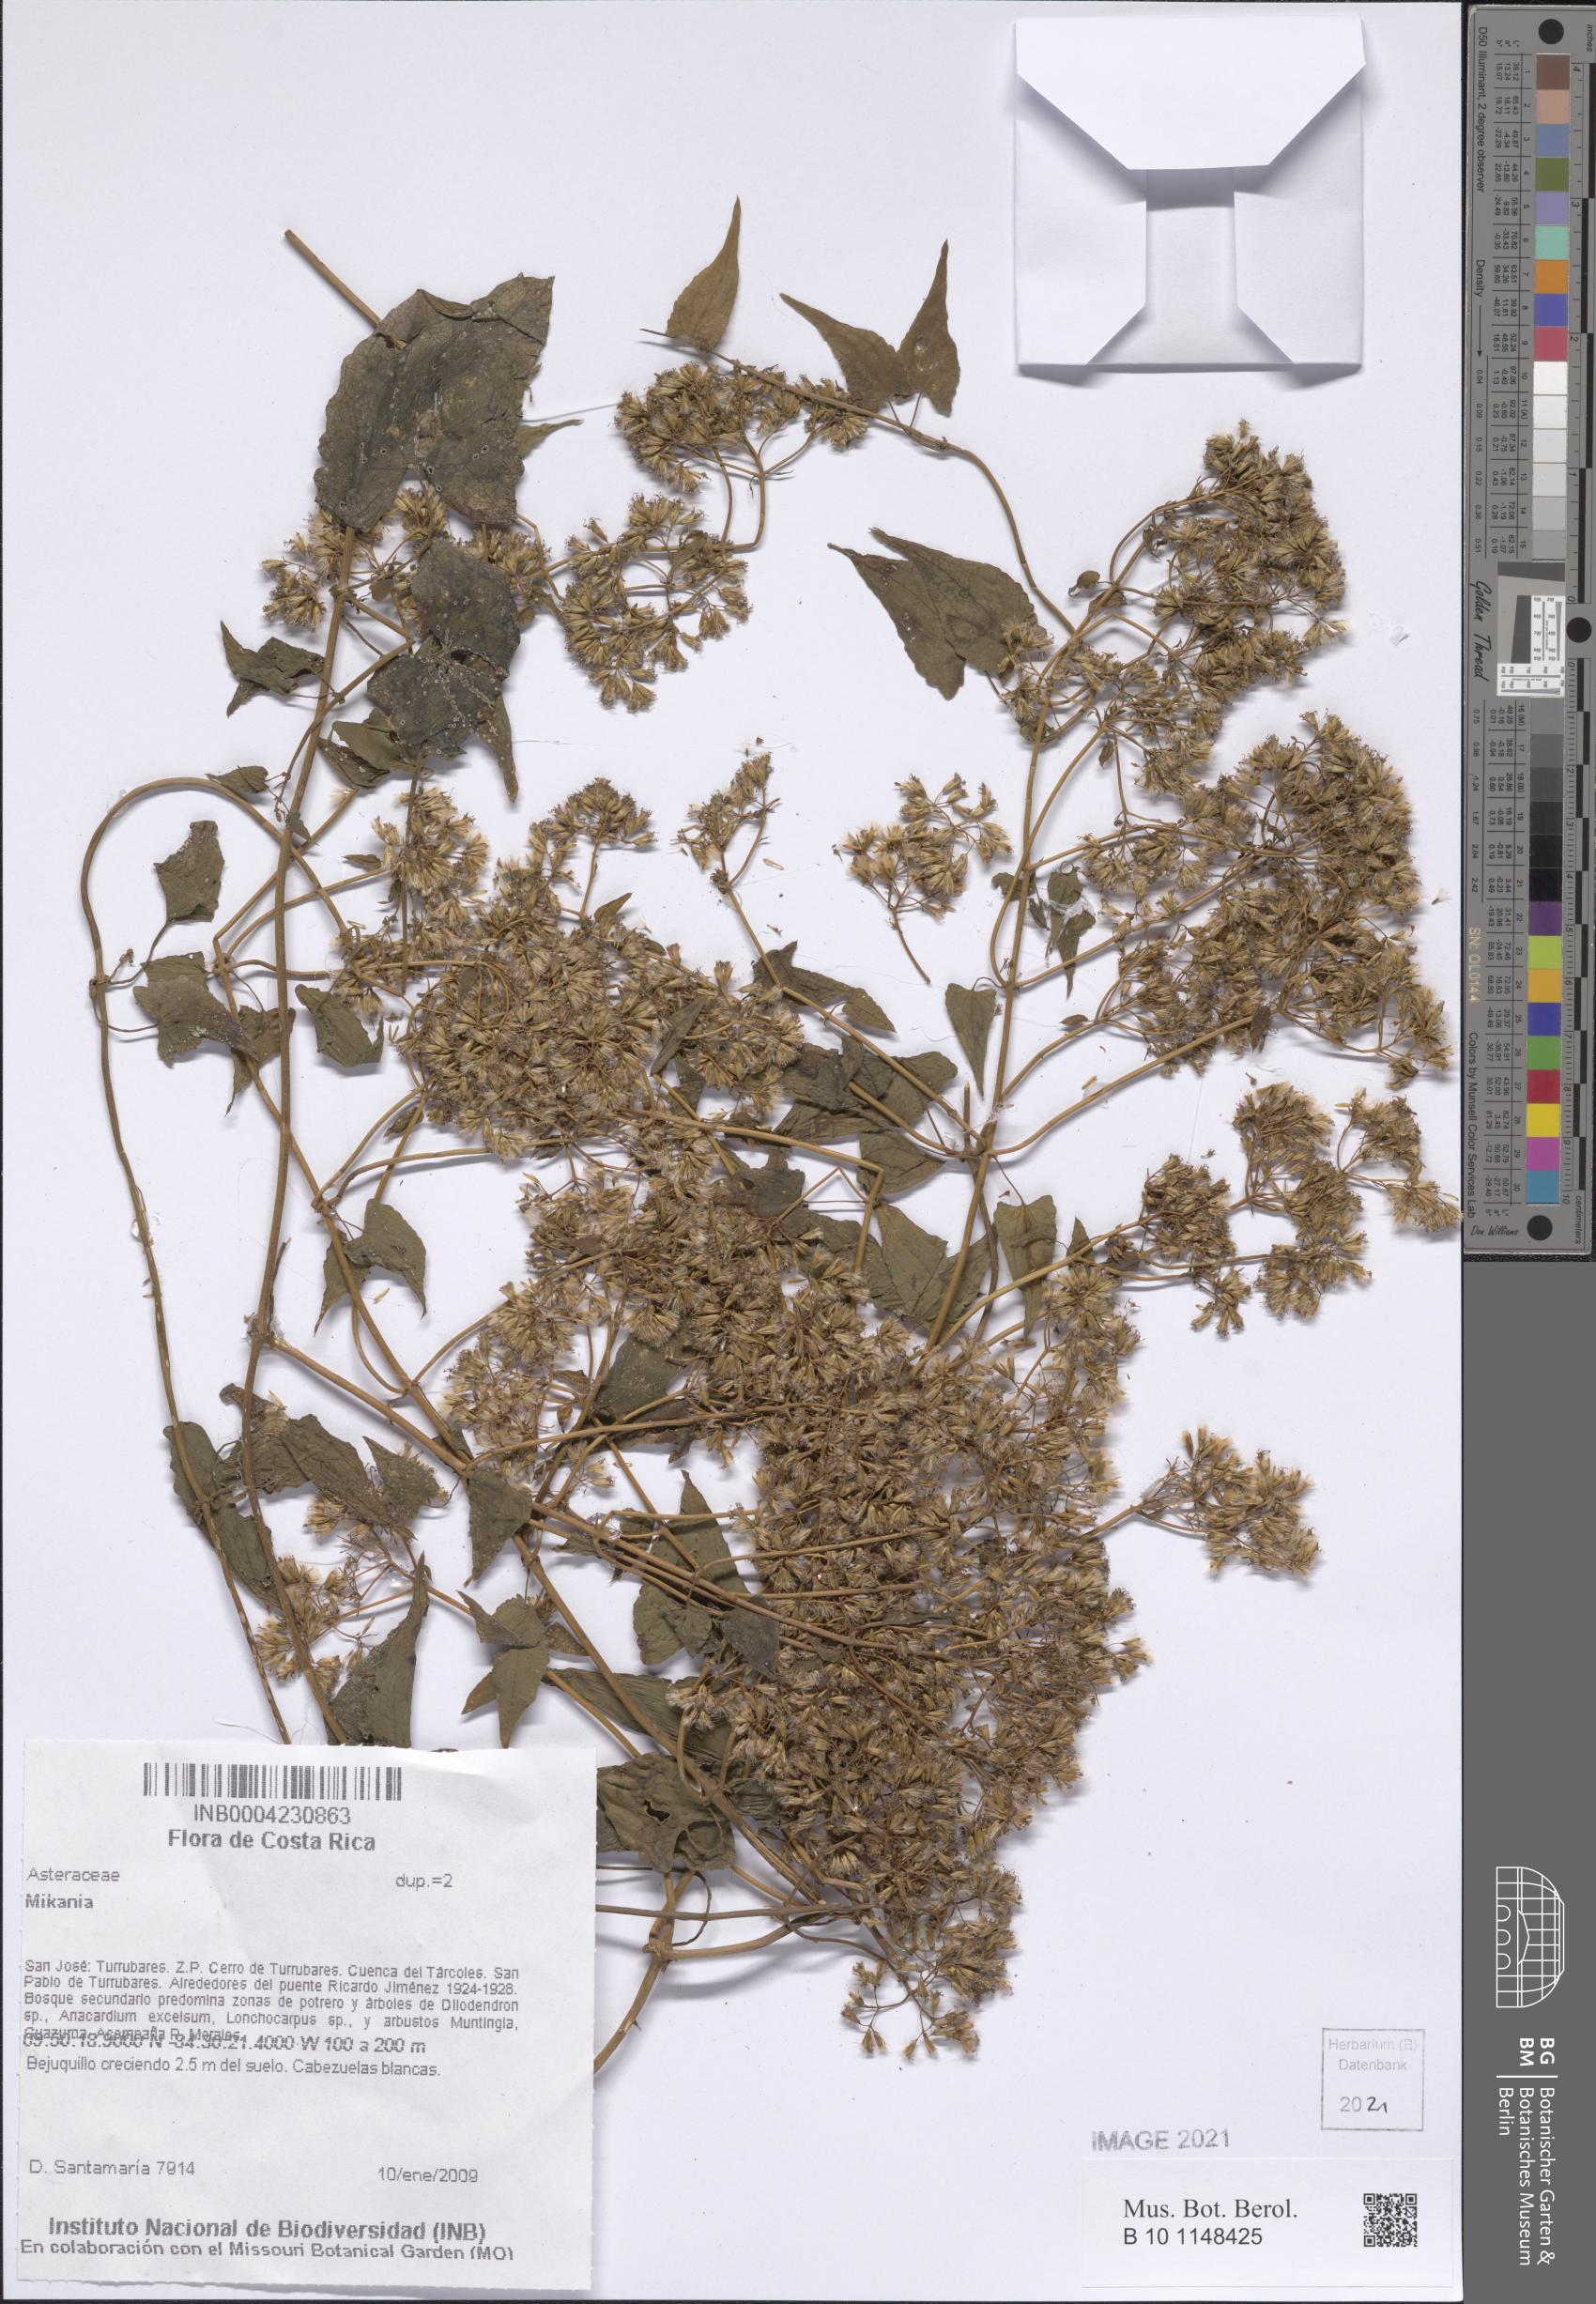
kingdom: Plantae
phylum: Tracheophyta
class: Magnoliopsida
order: Asterales
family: Asteraceae
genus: Mikania
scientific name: Mikania
